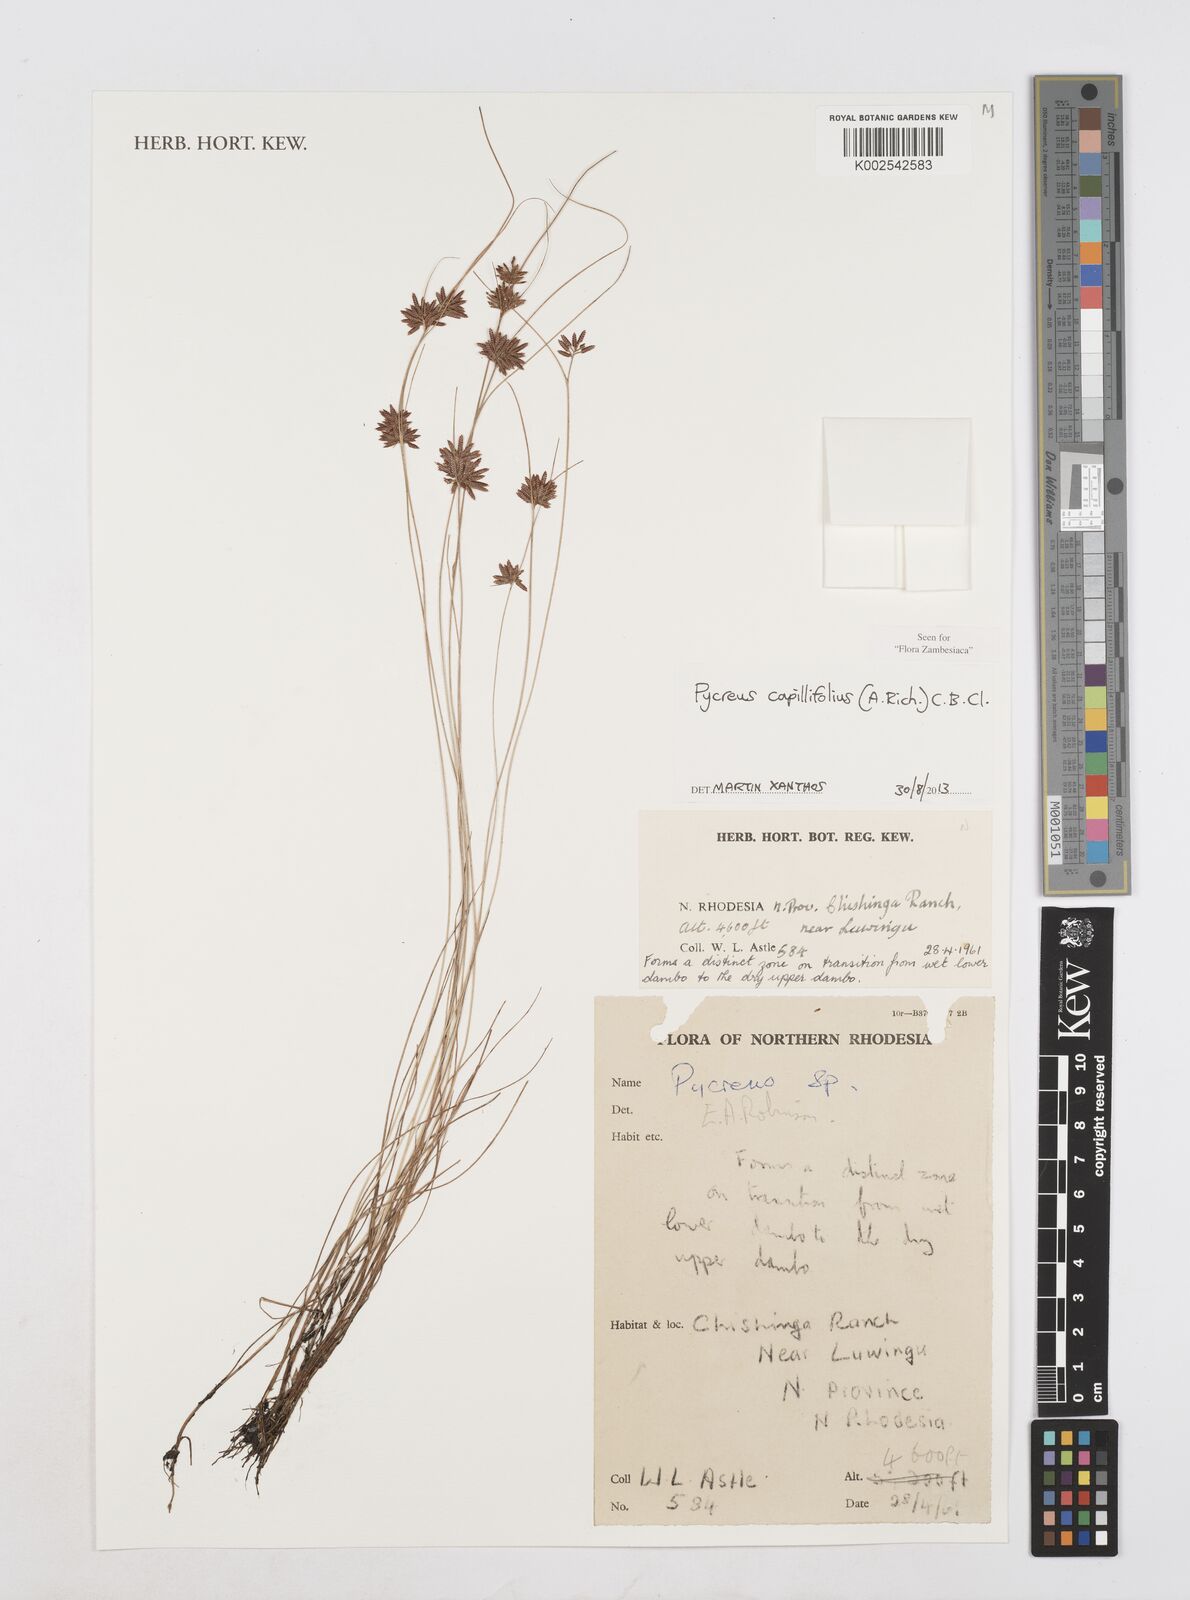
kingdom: Plantae
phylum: Tracheophyta
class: Liliopsida
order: Poales
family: Cyperaceae
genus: Cyperus
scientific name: Cyperus capillifolius
